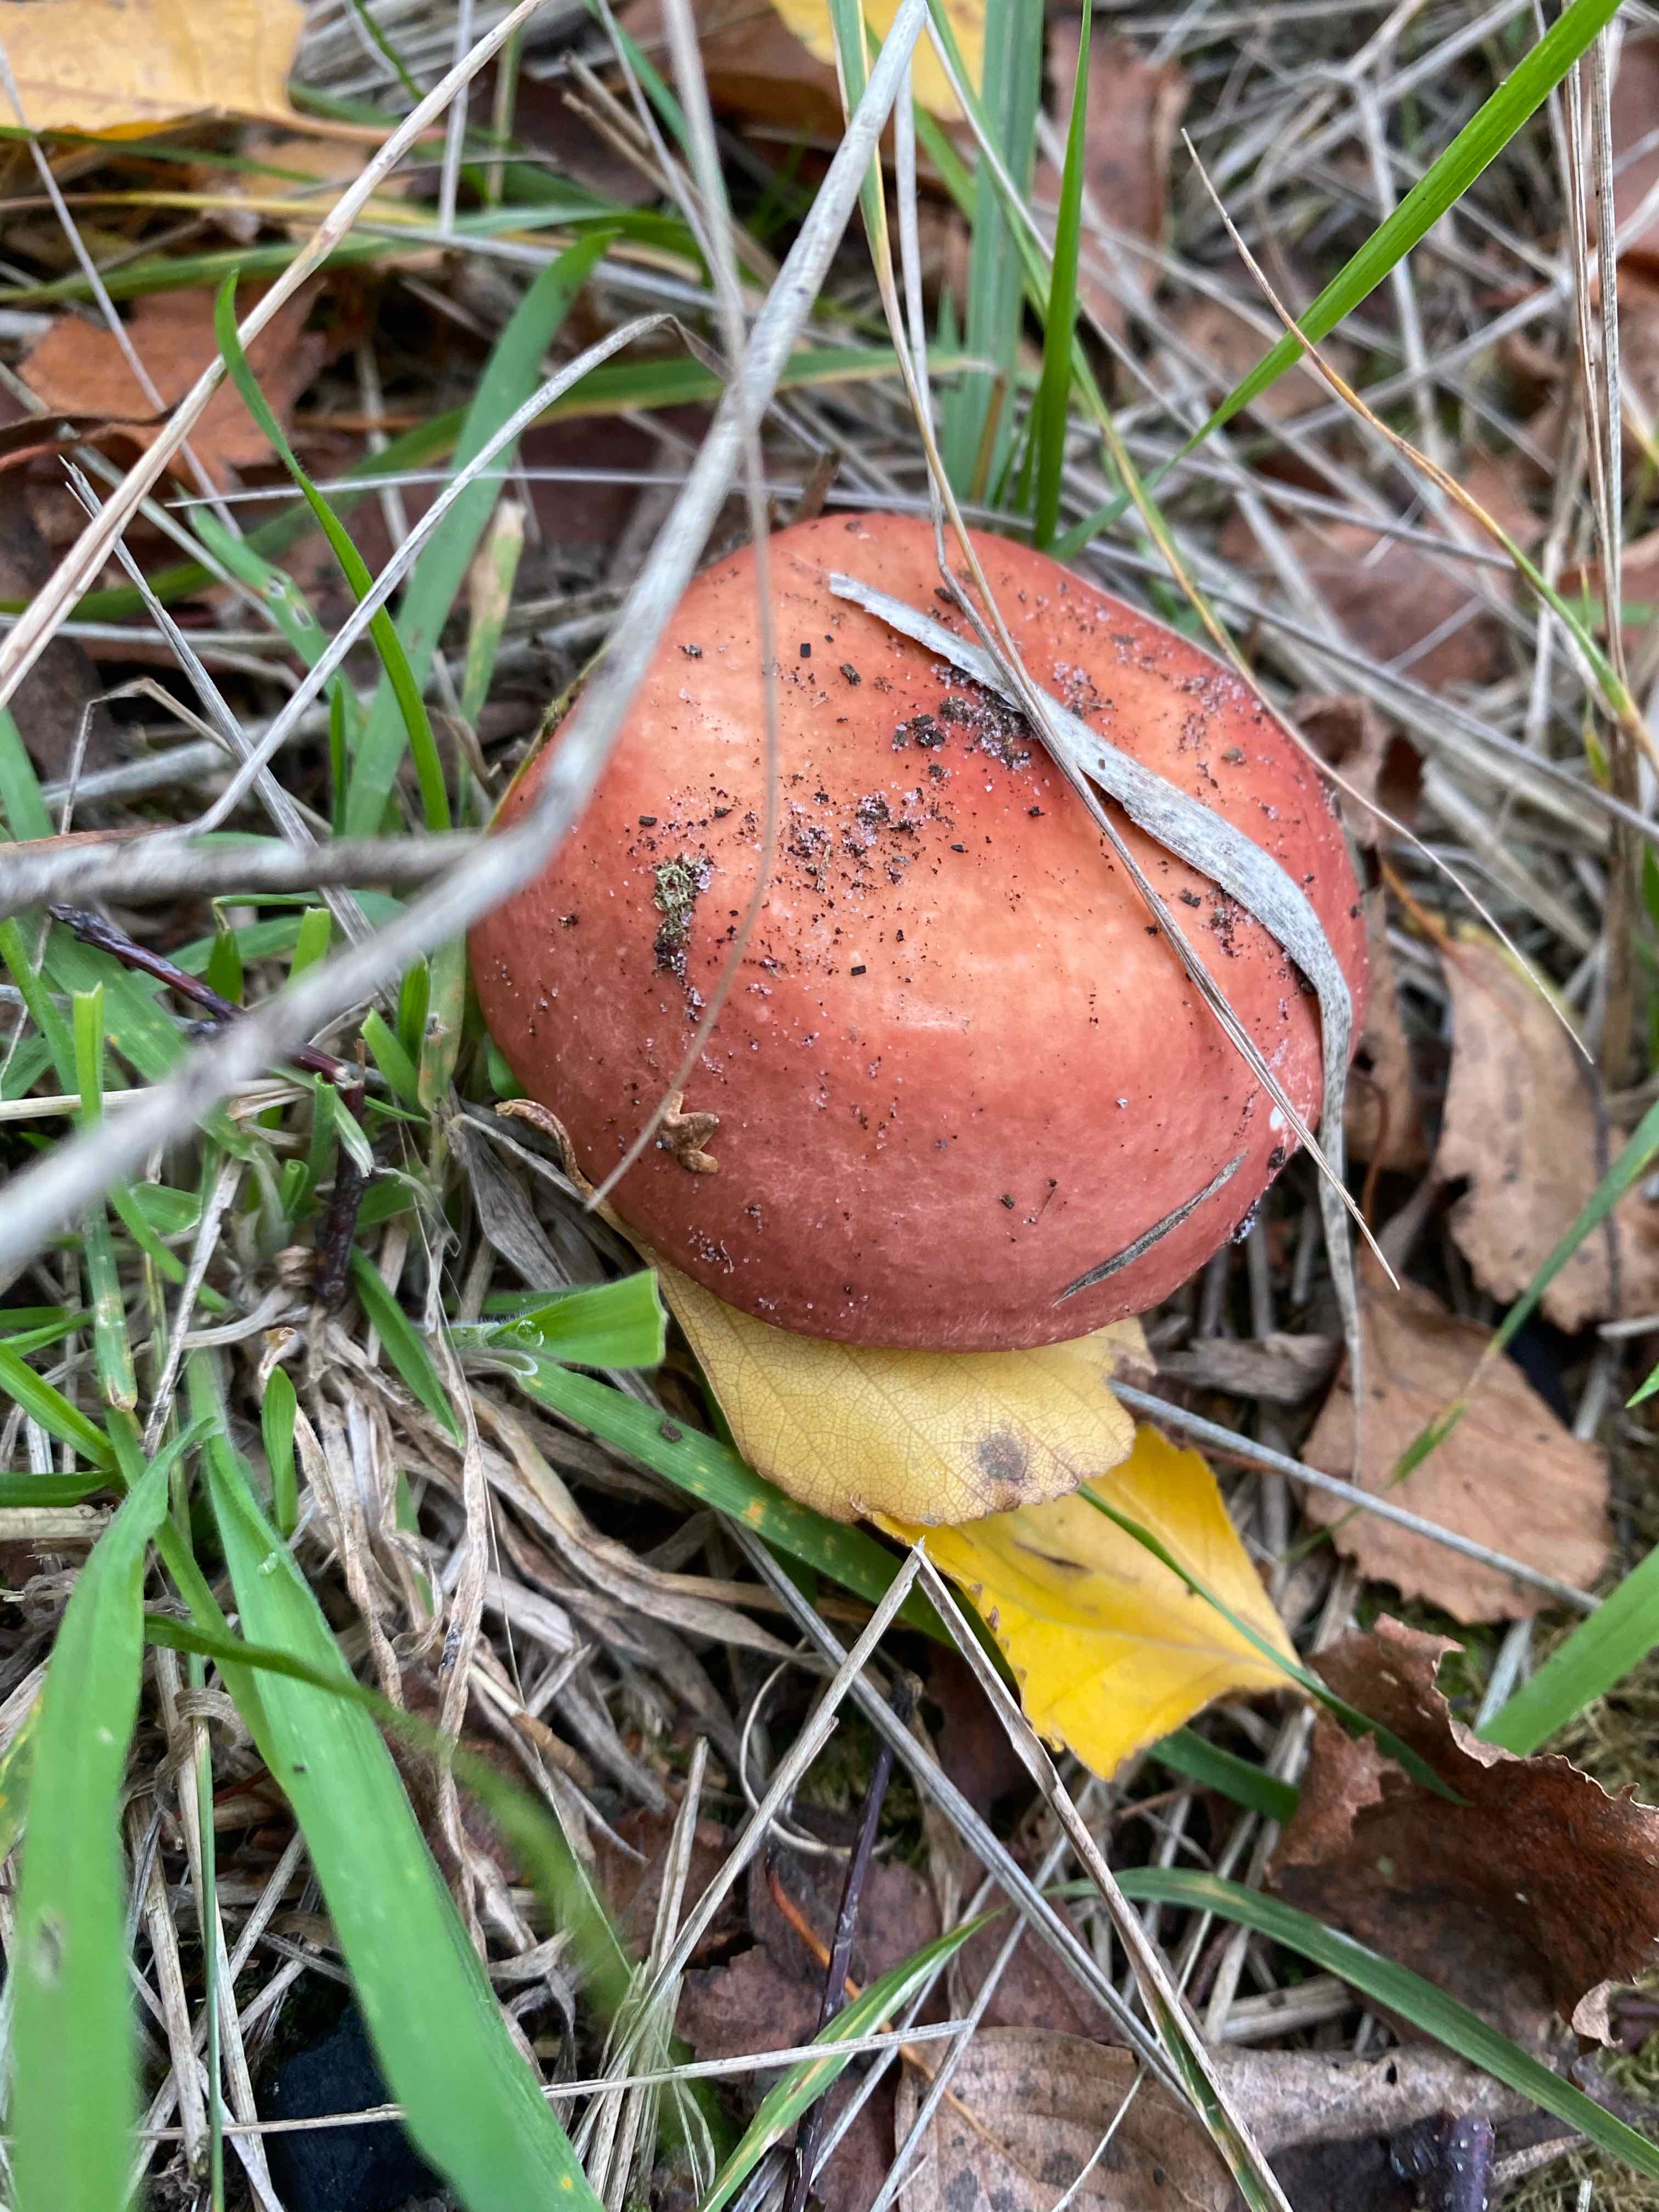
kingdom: Fungi
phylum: Basidiomycota
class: Agaricomycetes
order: Russulales
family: Russulaceae
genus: Russula
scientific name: Russula velenovskyi
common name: orangerød skørhat
